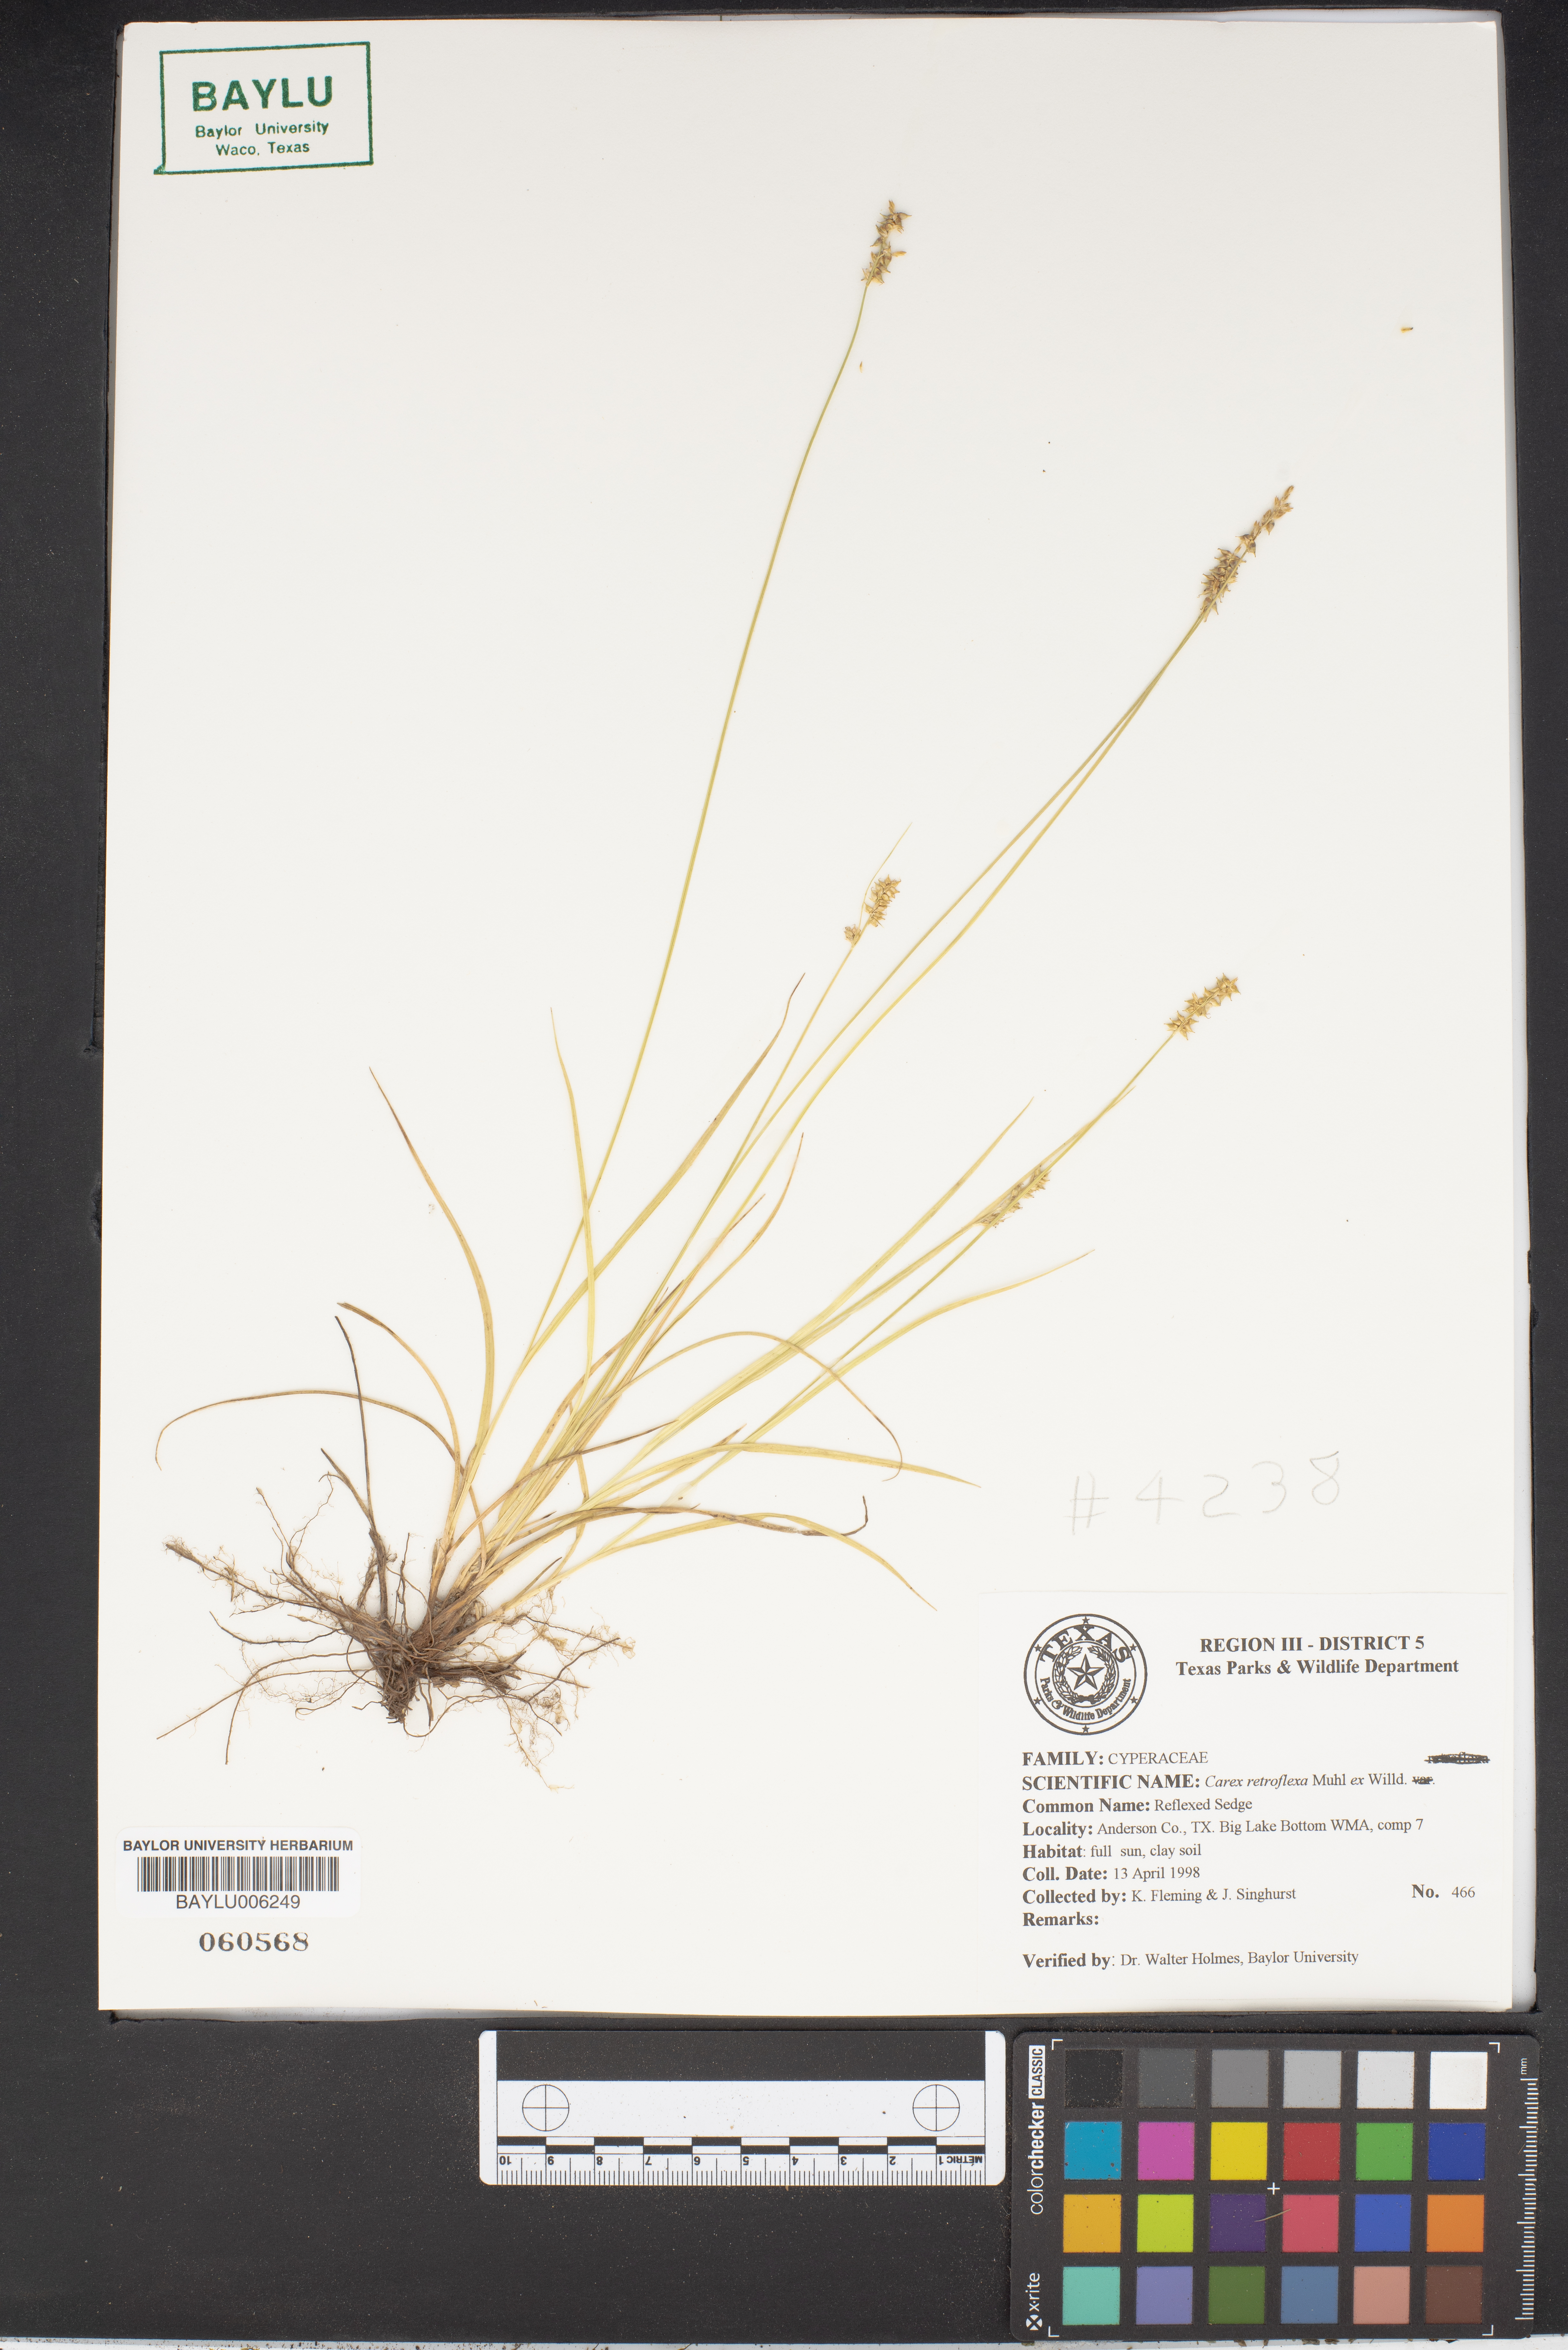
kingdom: Plantae
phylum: Tracheophyta
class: Liliopsida
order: Poales
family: Cyperaceae
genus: Carex
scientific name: Carex retroflexa
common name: Reflexed sedge
